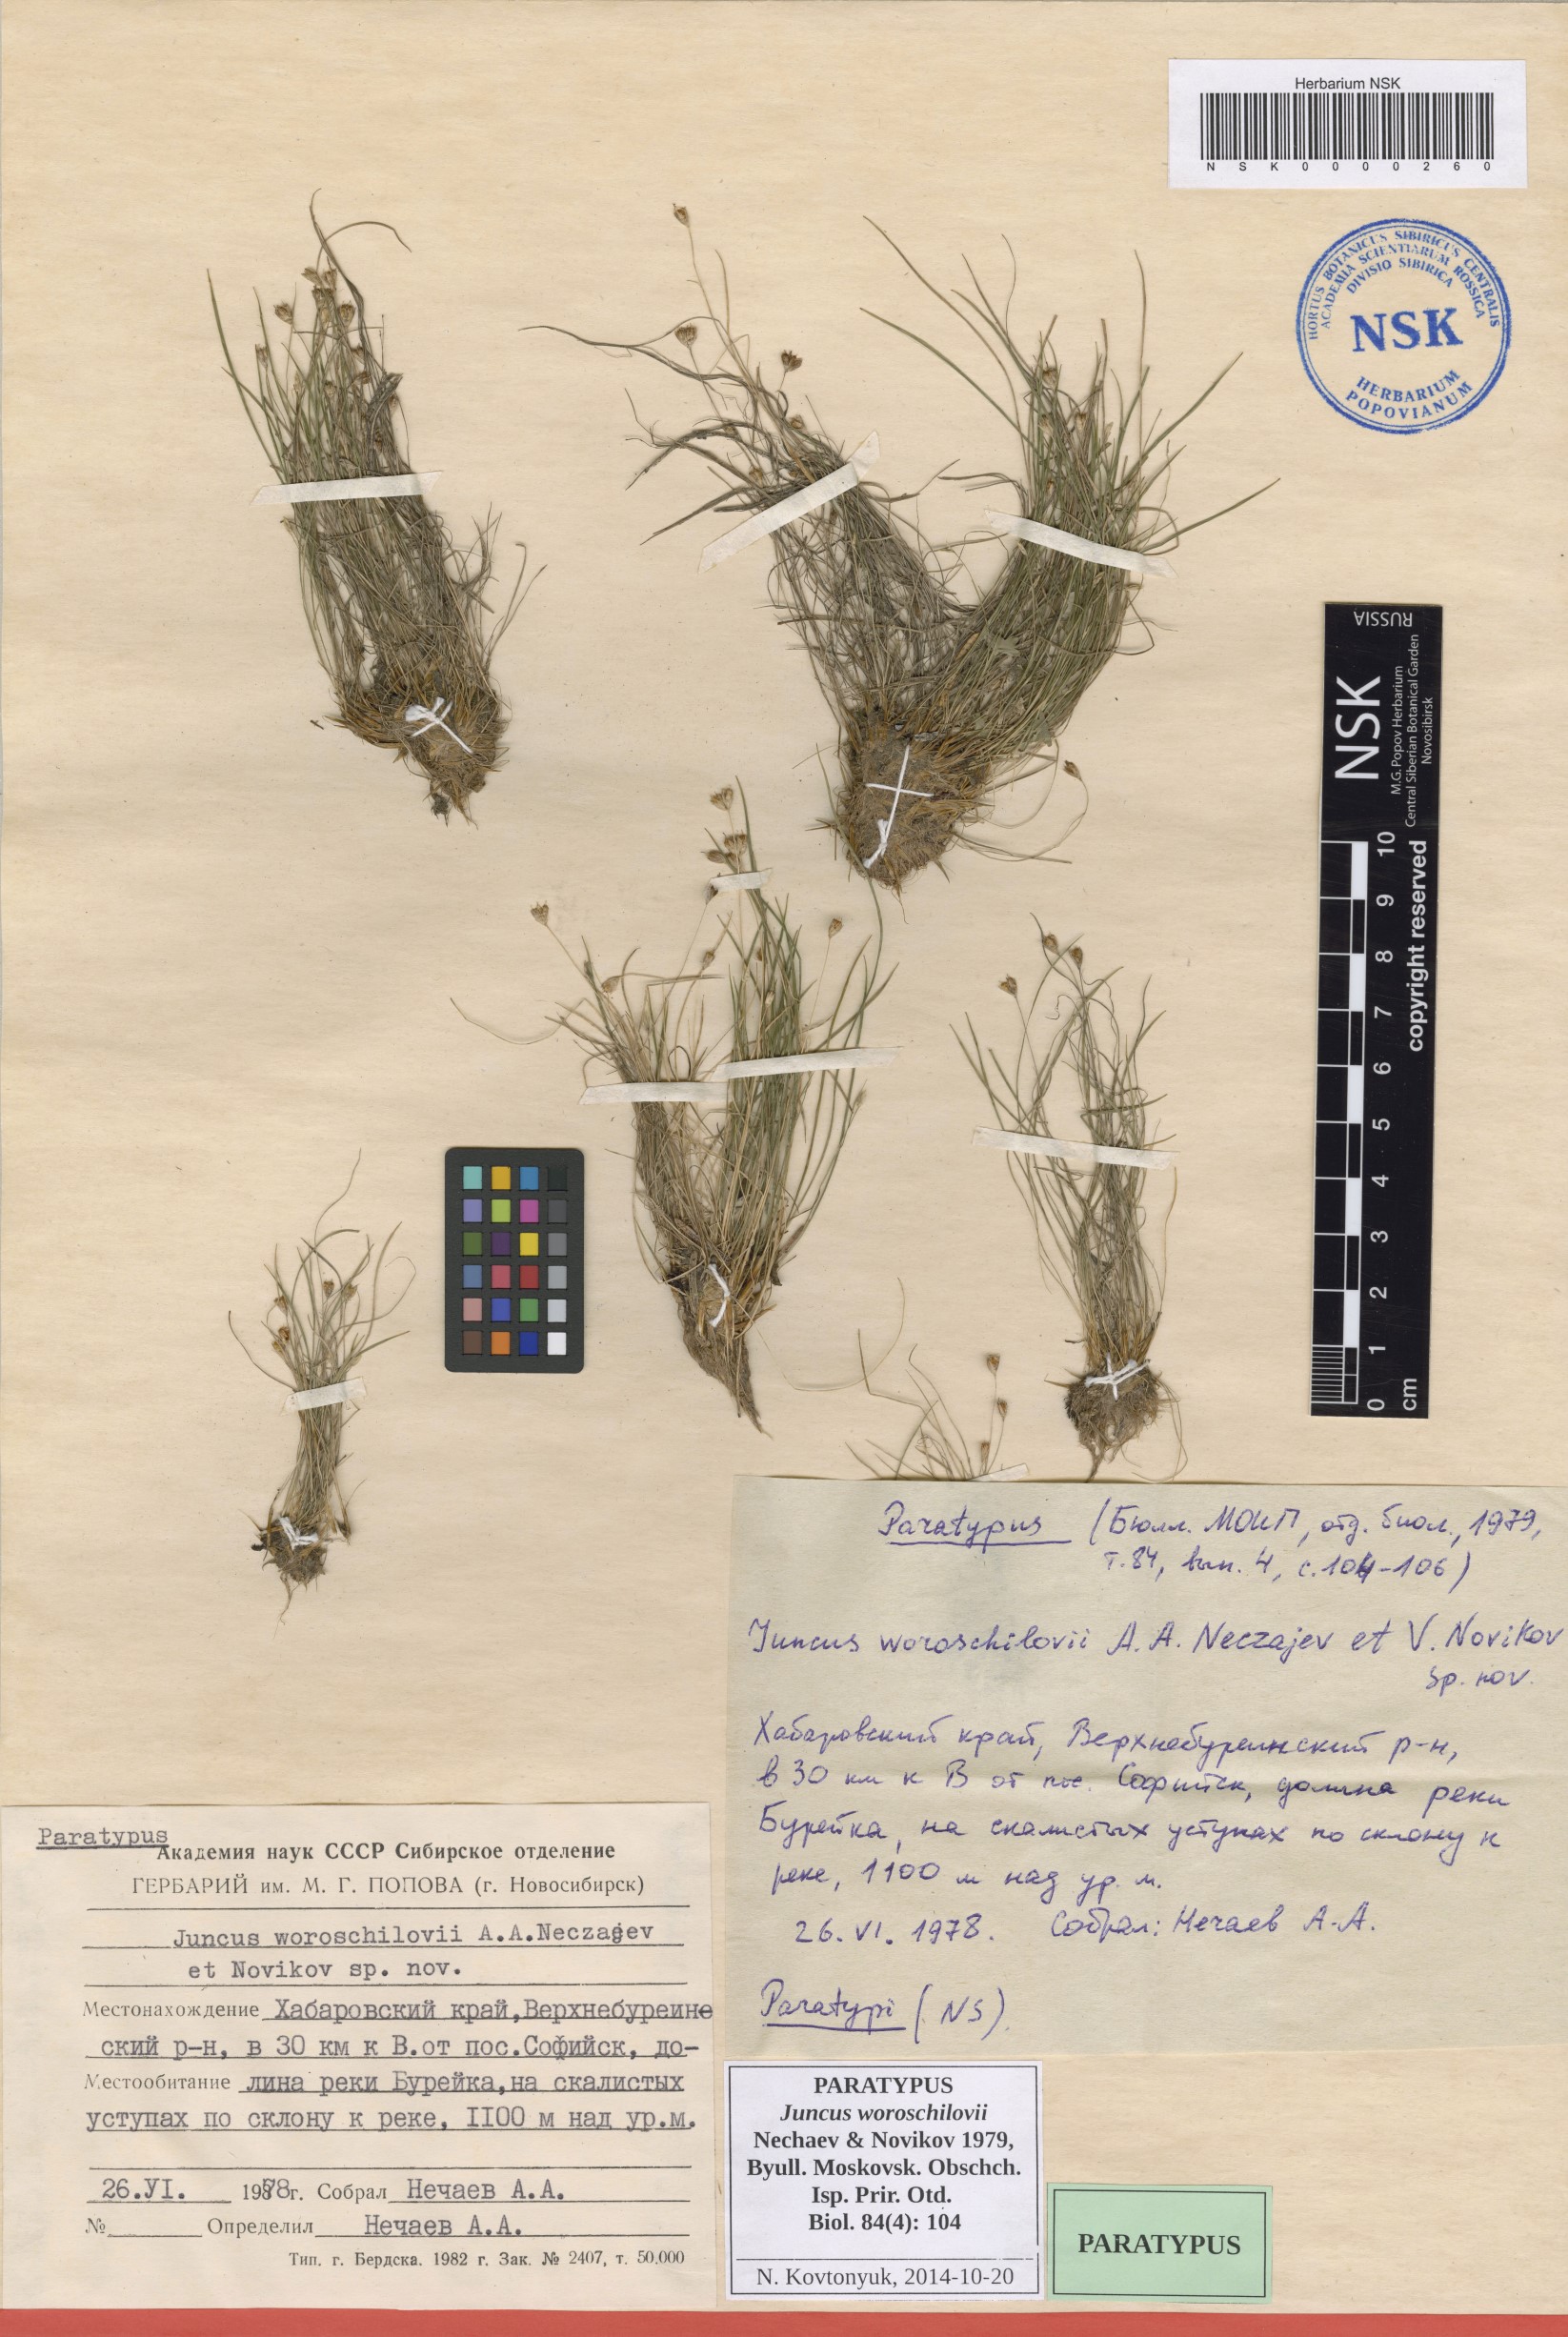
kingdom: Plantae
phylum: Tracheophyta
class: Liliopsida
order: Poales
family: Juncaceae
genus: Juncus
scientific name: Juncus potaninii
